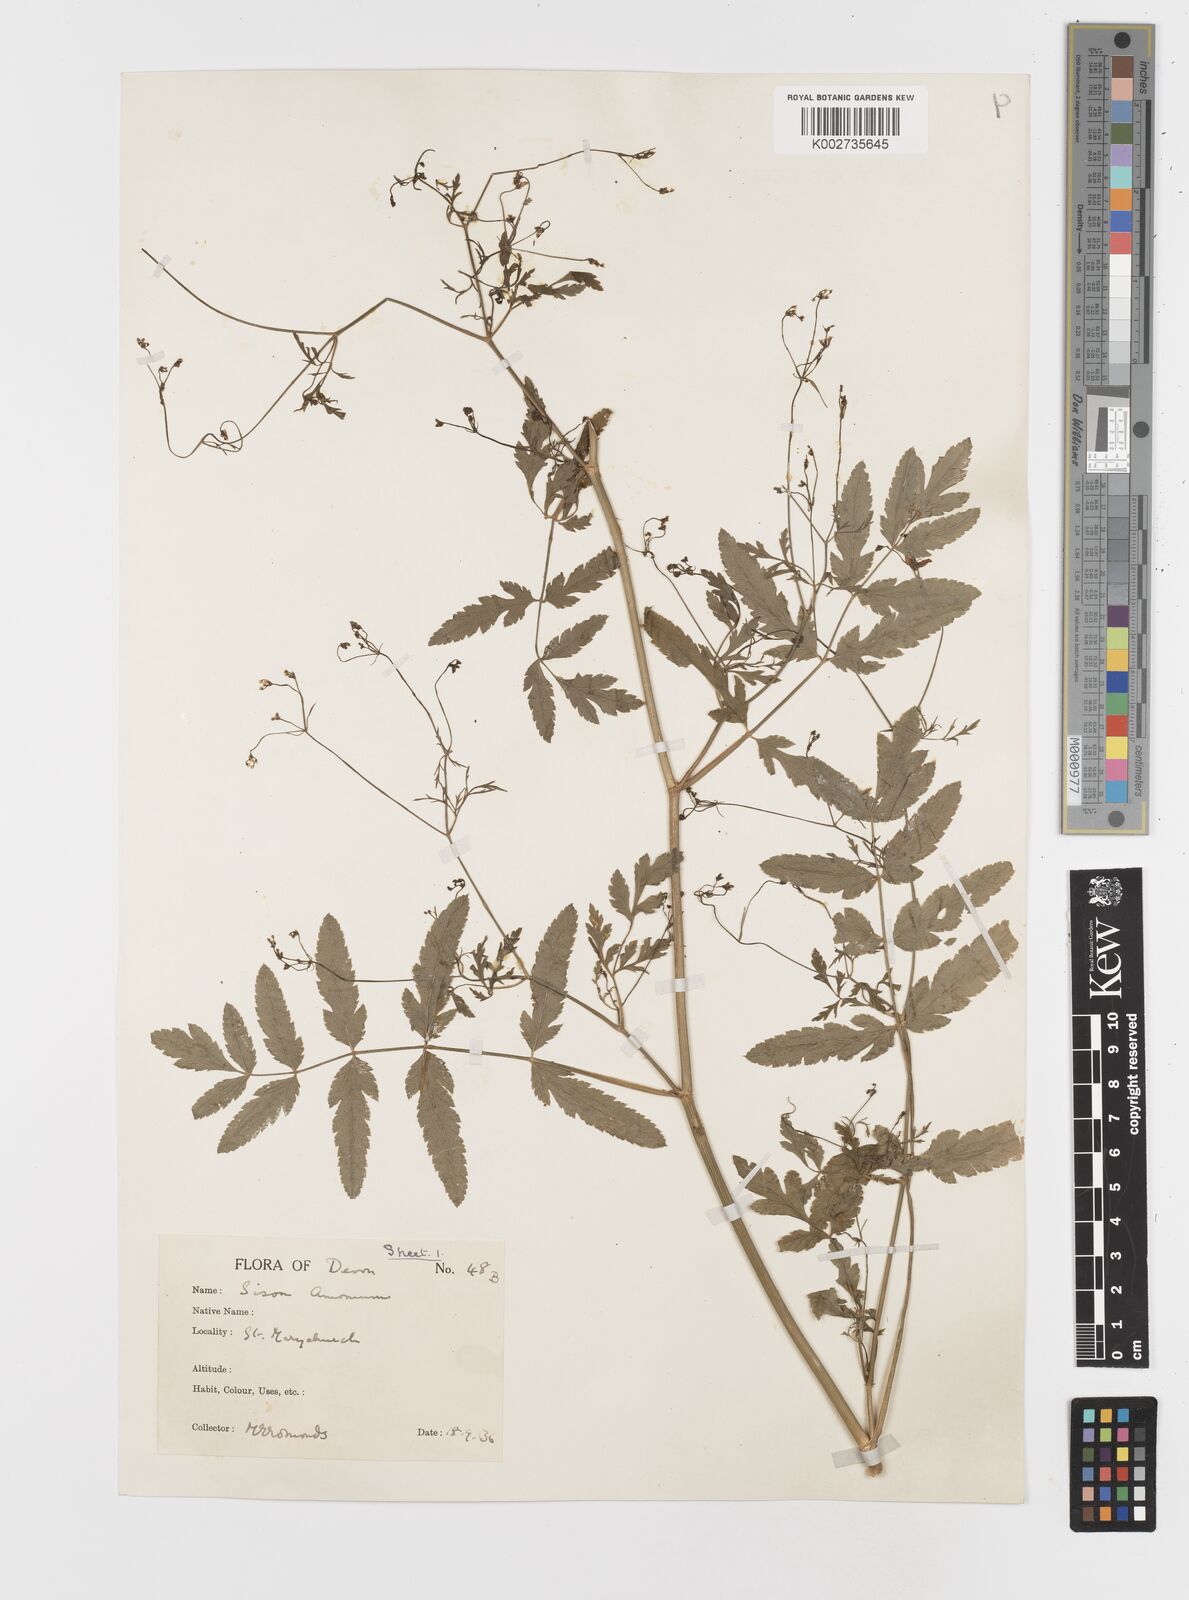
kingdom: Plantae
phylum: Tracheophyta
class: Magnoliopsida
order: Apiales
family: Apiaceae
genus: Sison
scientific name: Sison amomum
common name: Stone-parsley
